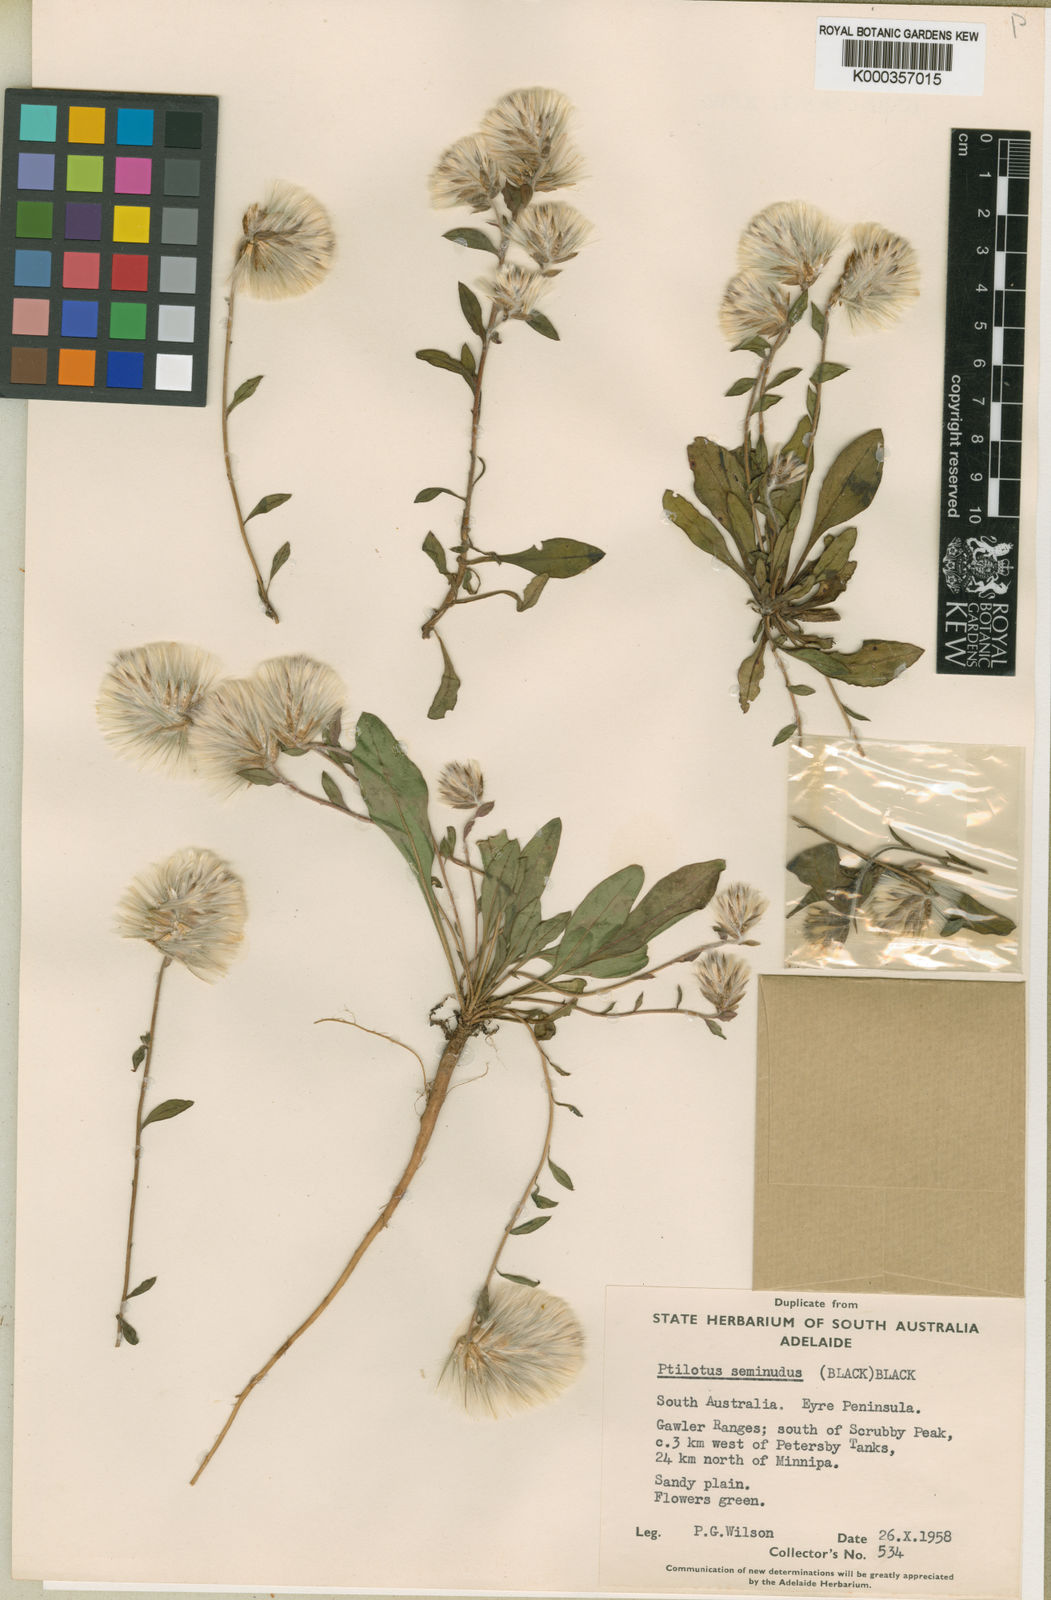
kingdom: Plantae
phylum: Tracheophyta
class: Magnoliopsida
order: Caryophyllales
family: Amaranthaceae
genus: Ptilotus
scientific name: Ptilotus seminudus
